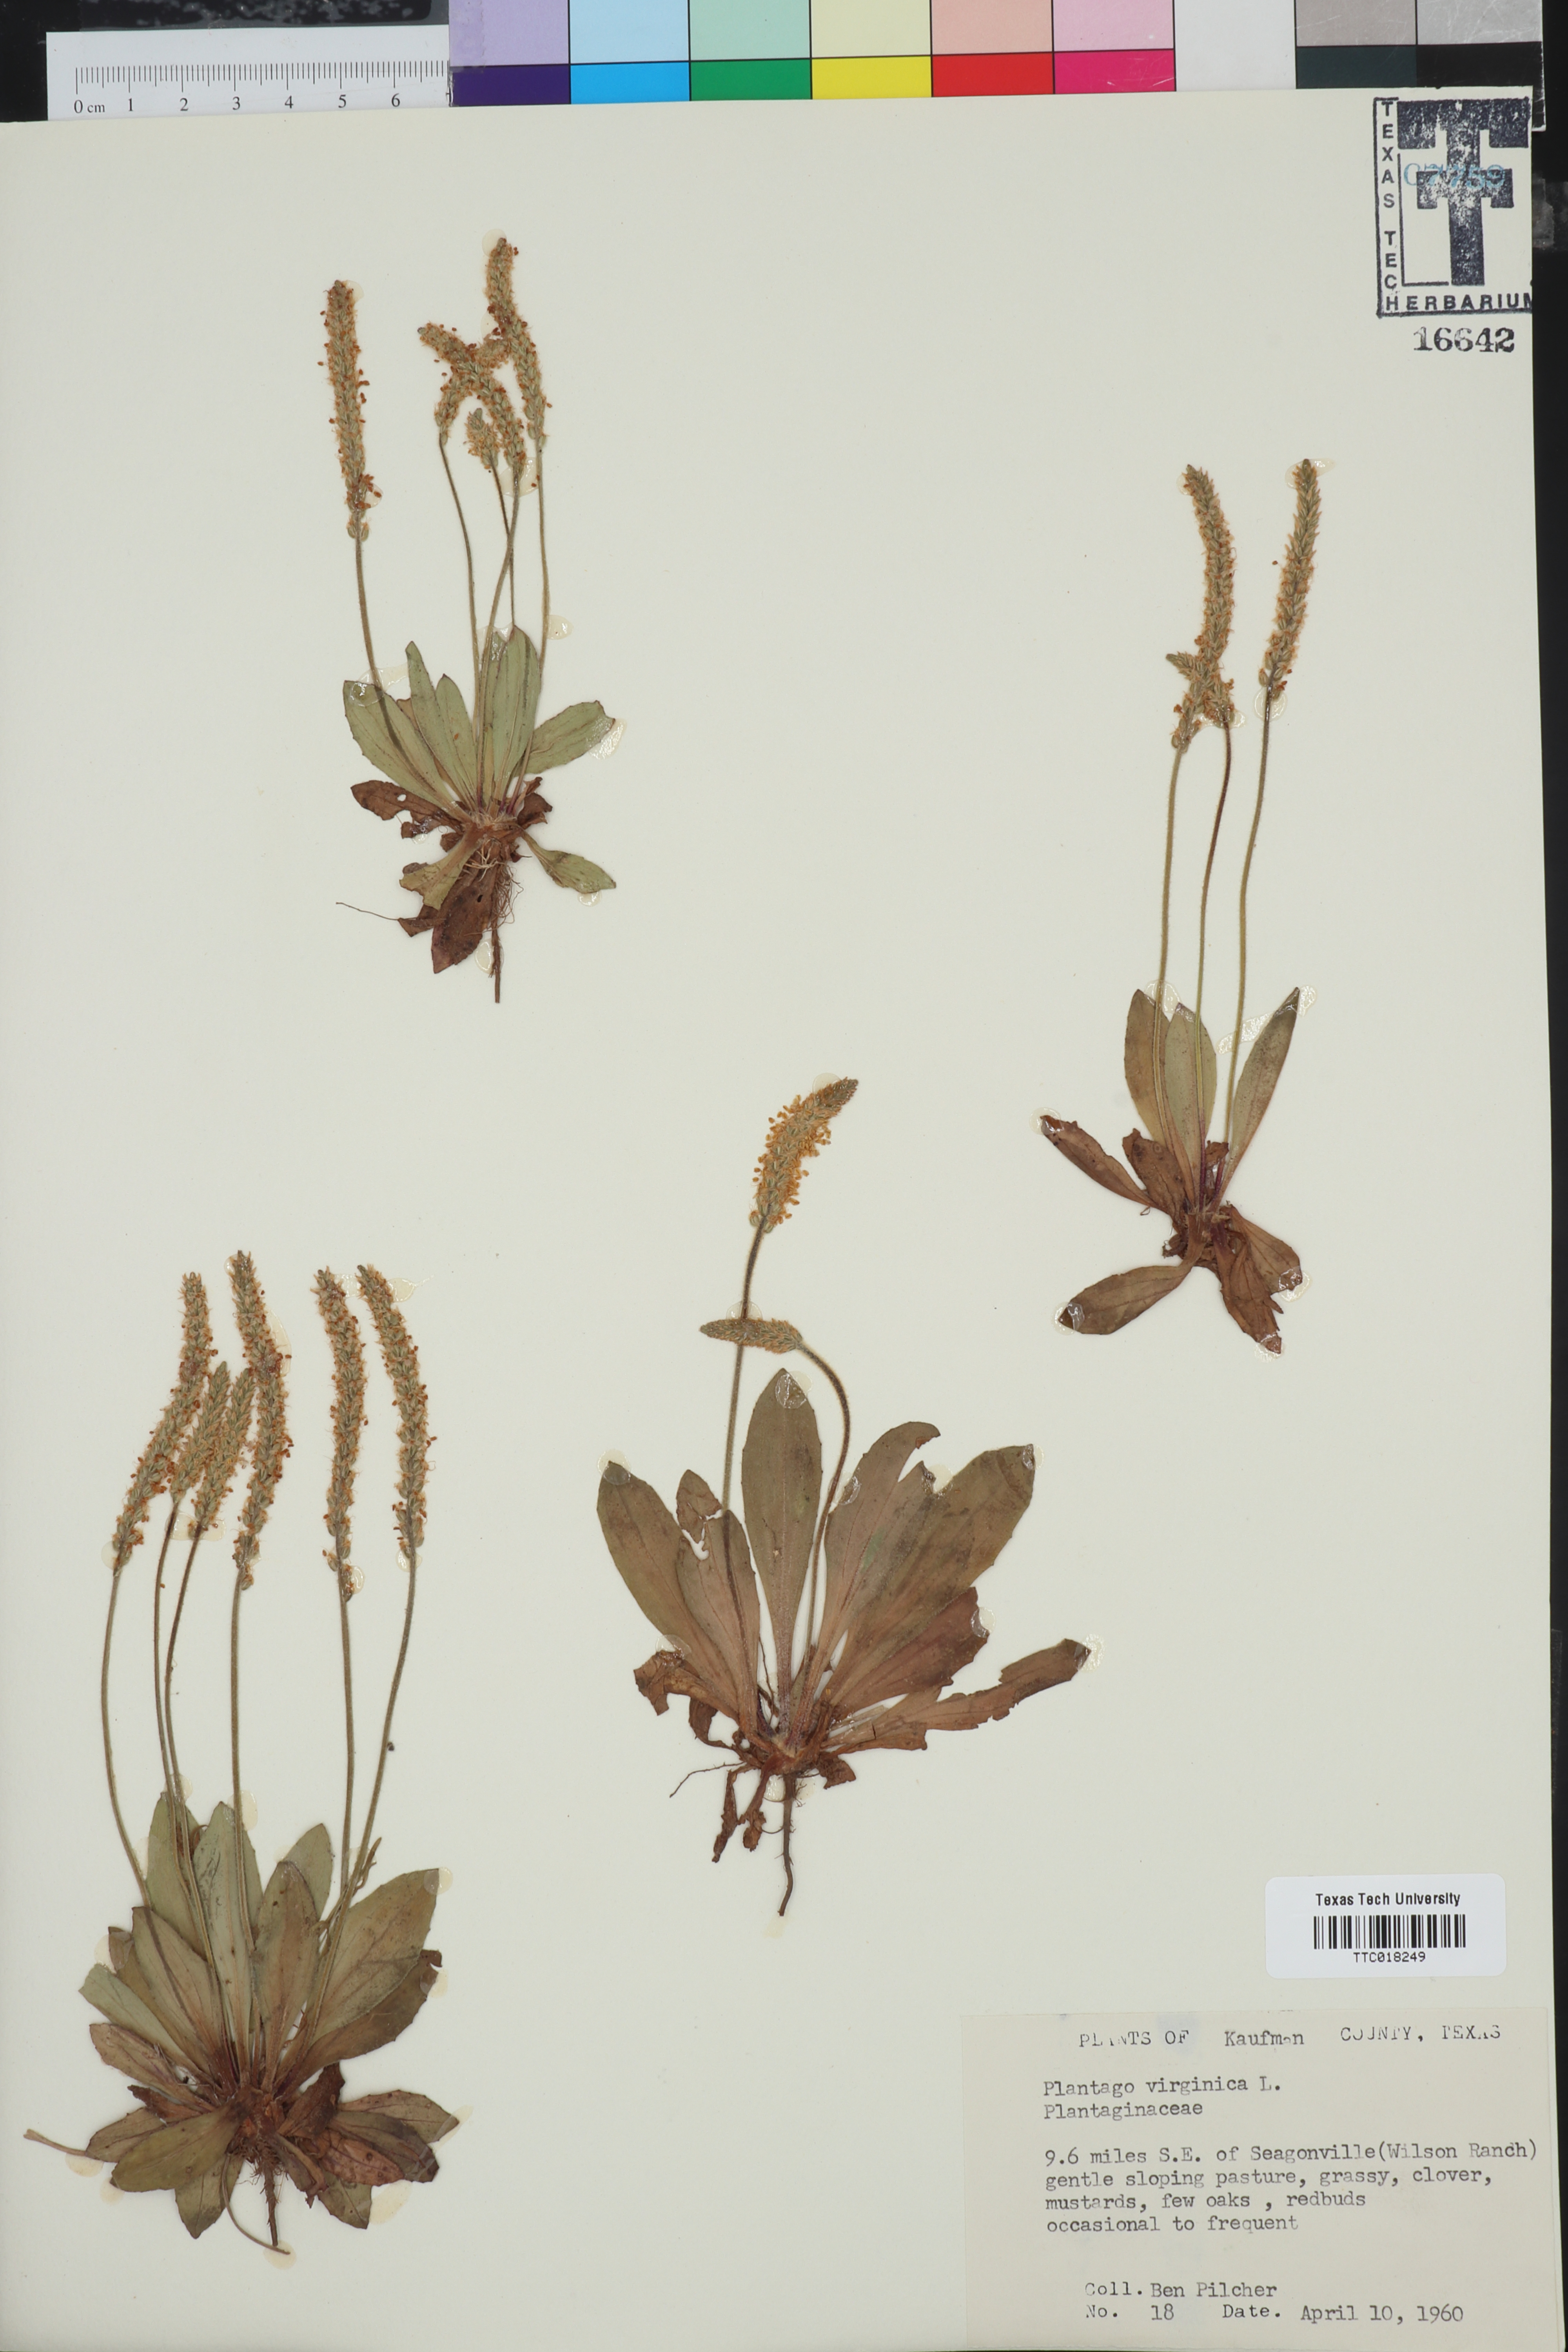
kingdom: Plantae
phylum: Tracheophyta
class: Magnoliopsida
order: Lamiales
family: Plantaginaceae
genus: Plantago
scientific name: Plantago virginica
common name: Hoary plantain
